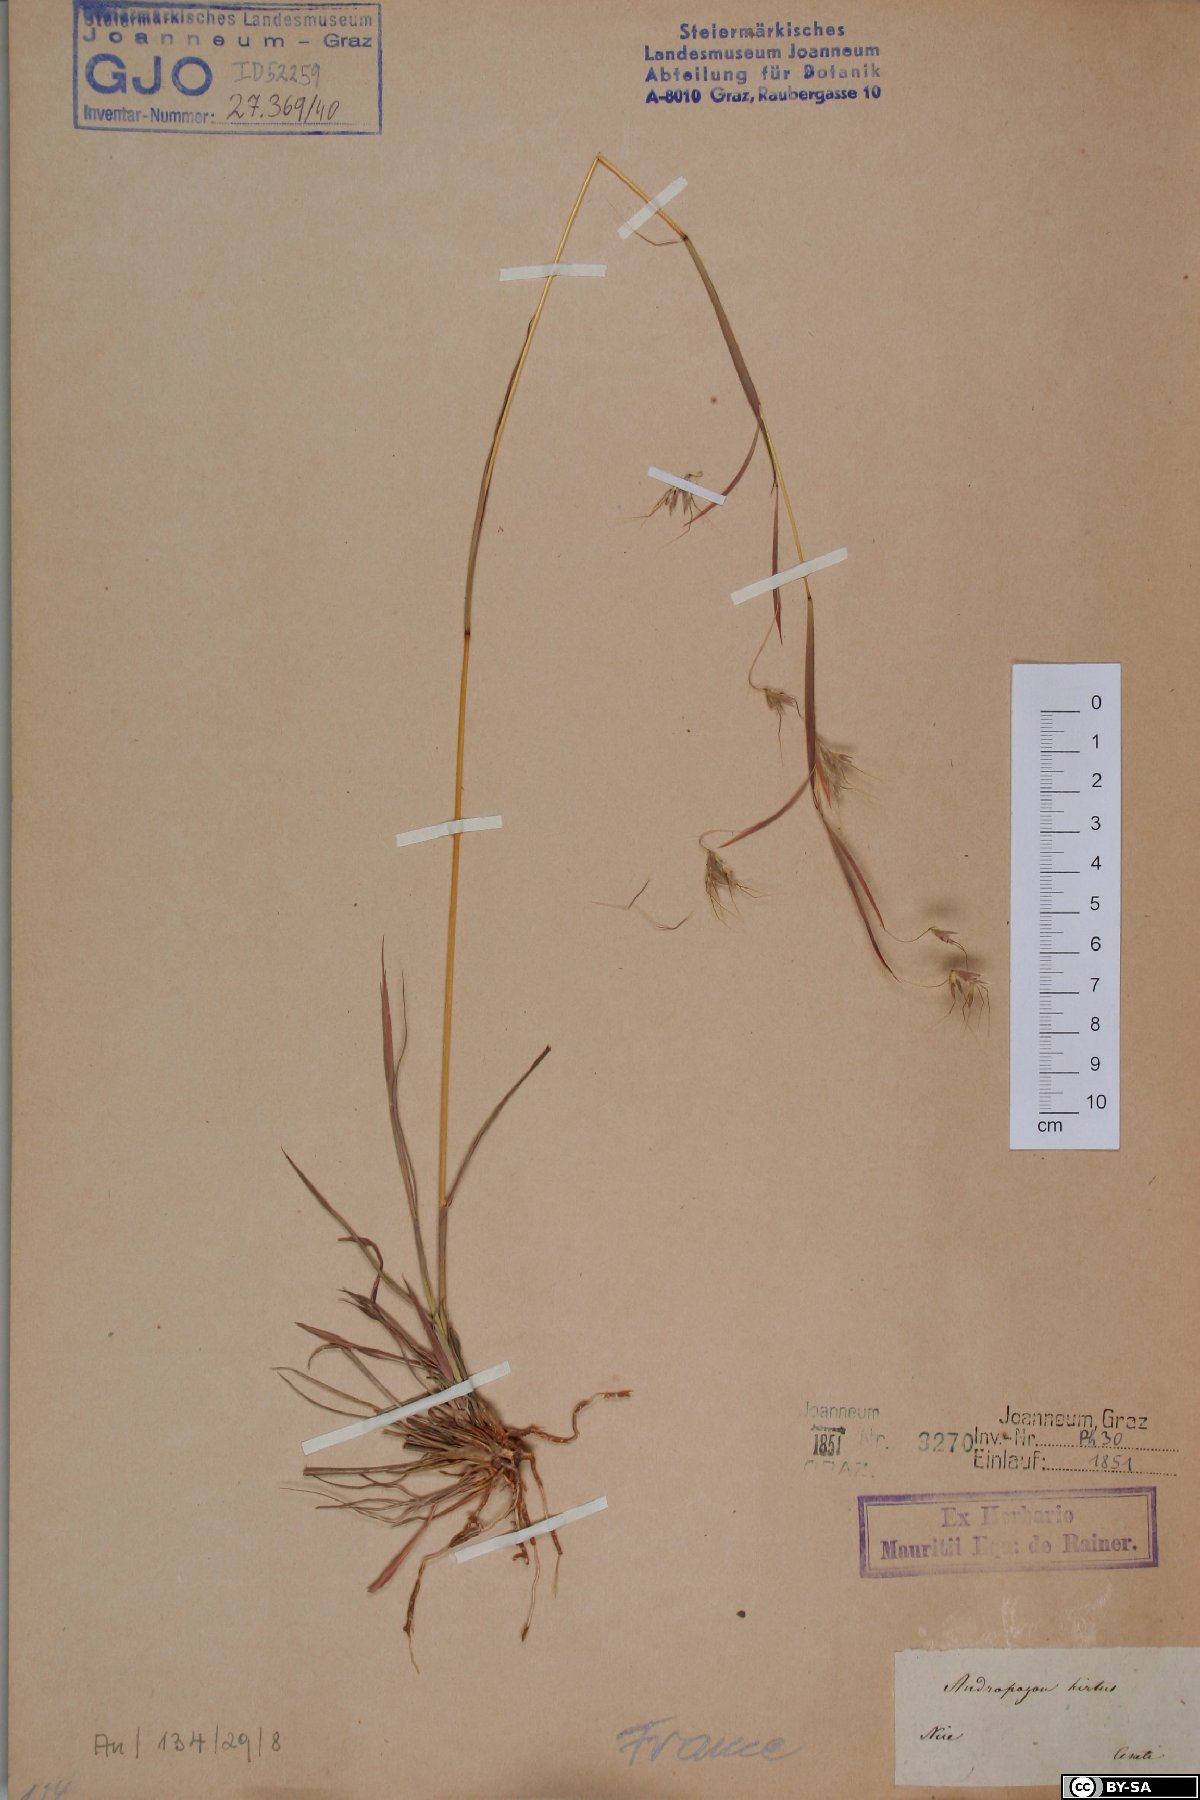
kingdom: Plantae
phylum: Tracheophyta
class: Liliopsida
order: Poales
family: Poaceae
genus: Hyparrhenia
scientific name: Hyparrhenia hirta
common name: Thatching grass
